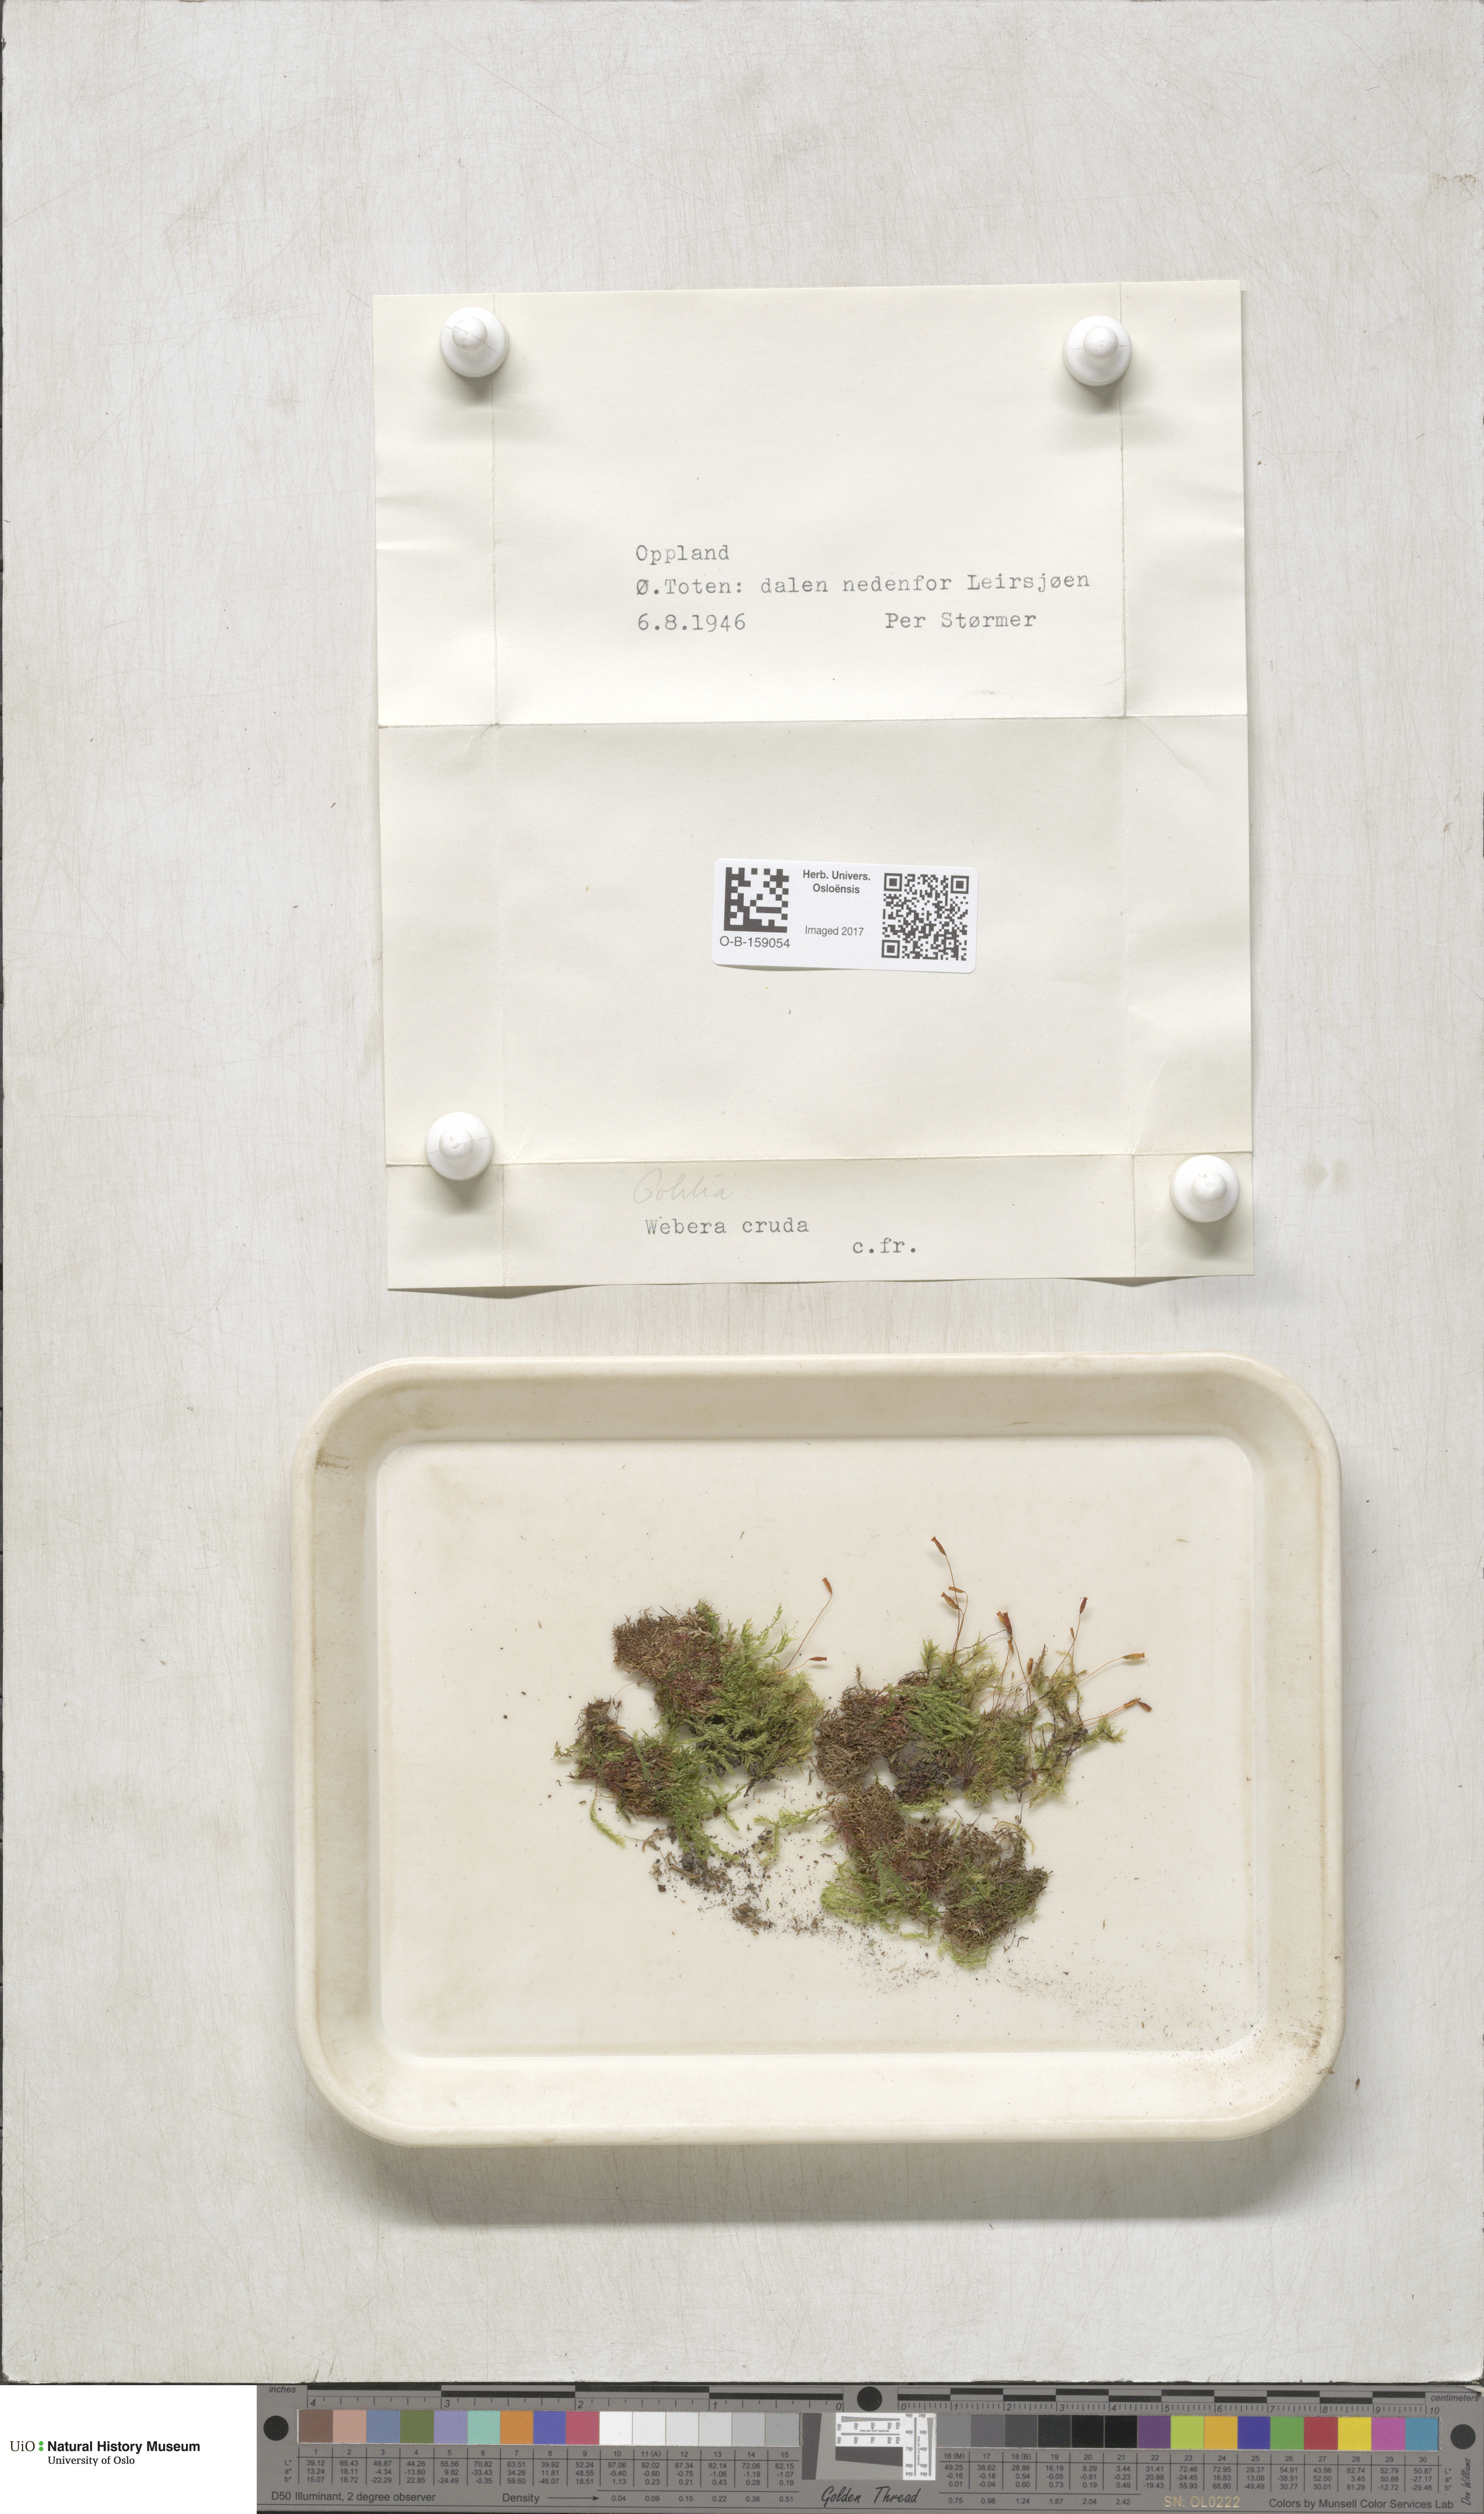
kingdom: Plantae
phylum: Bryophyta
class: Bryopsida
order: Bryales
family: Mniaceae
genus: Pohlia
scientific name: Pohlia cruda
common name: Opal nodding moss
